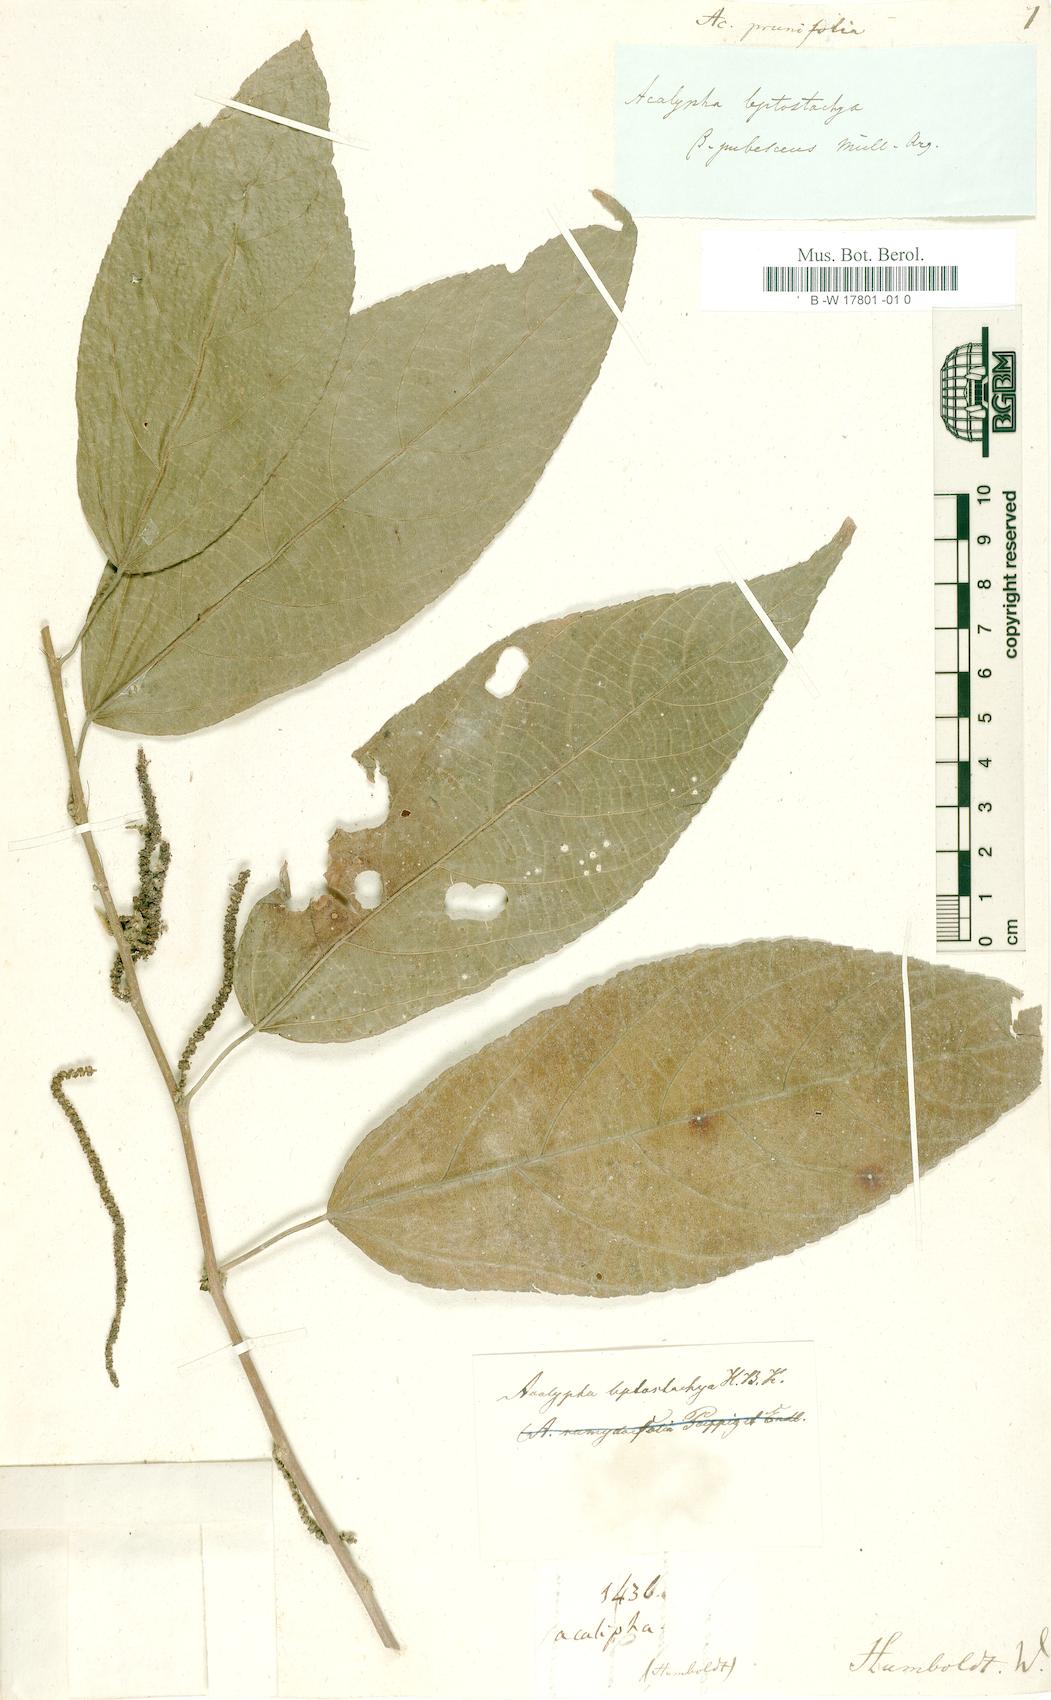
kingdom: Plantae
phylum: Tracheophyta
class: Magnoliopsida
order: Malpighiales
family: Euphorbiaceae
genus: Acalypha
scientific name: Acalypha klotzschii
